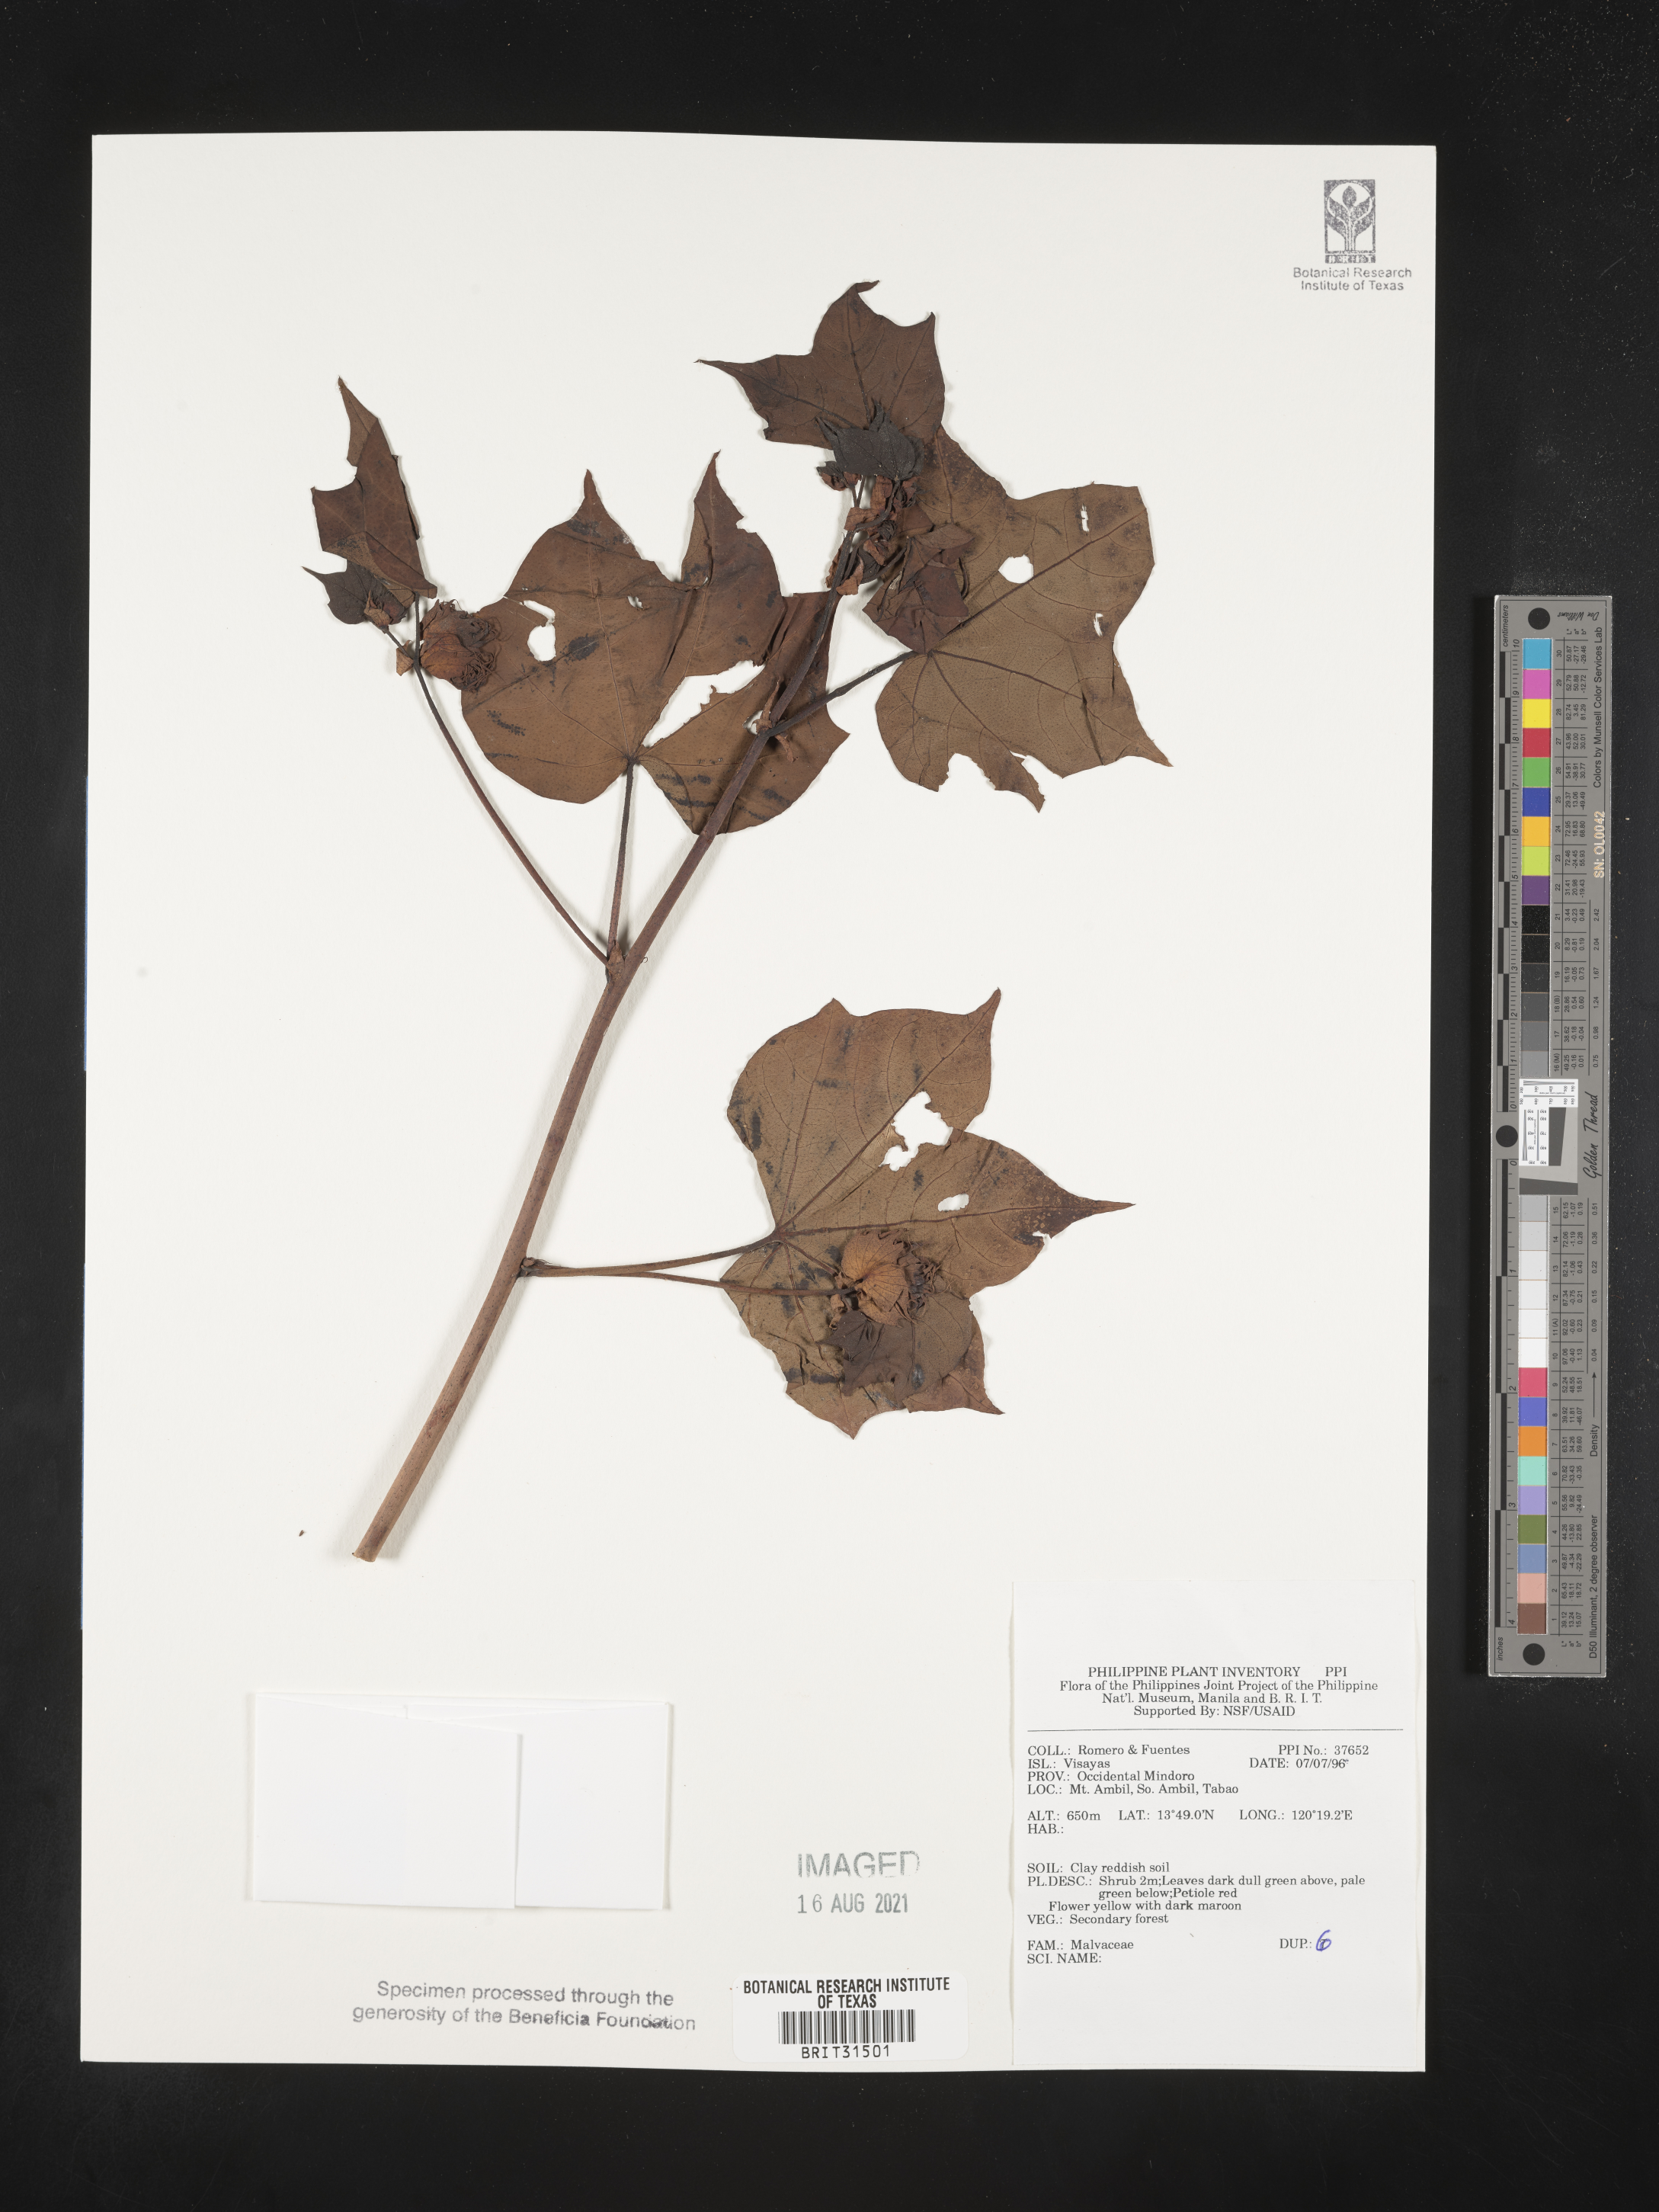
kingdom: Plantae
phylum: Tracheophyta
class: Magnoliopsida
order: Malvales
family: Malvaceae
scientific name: Malvaceae
